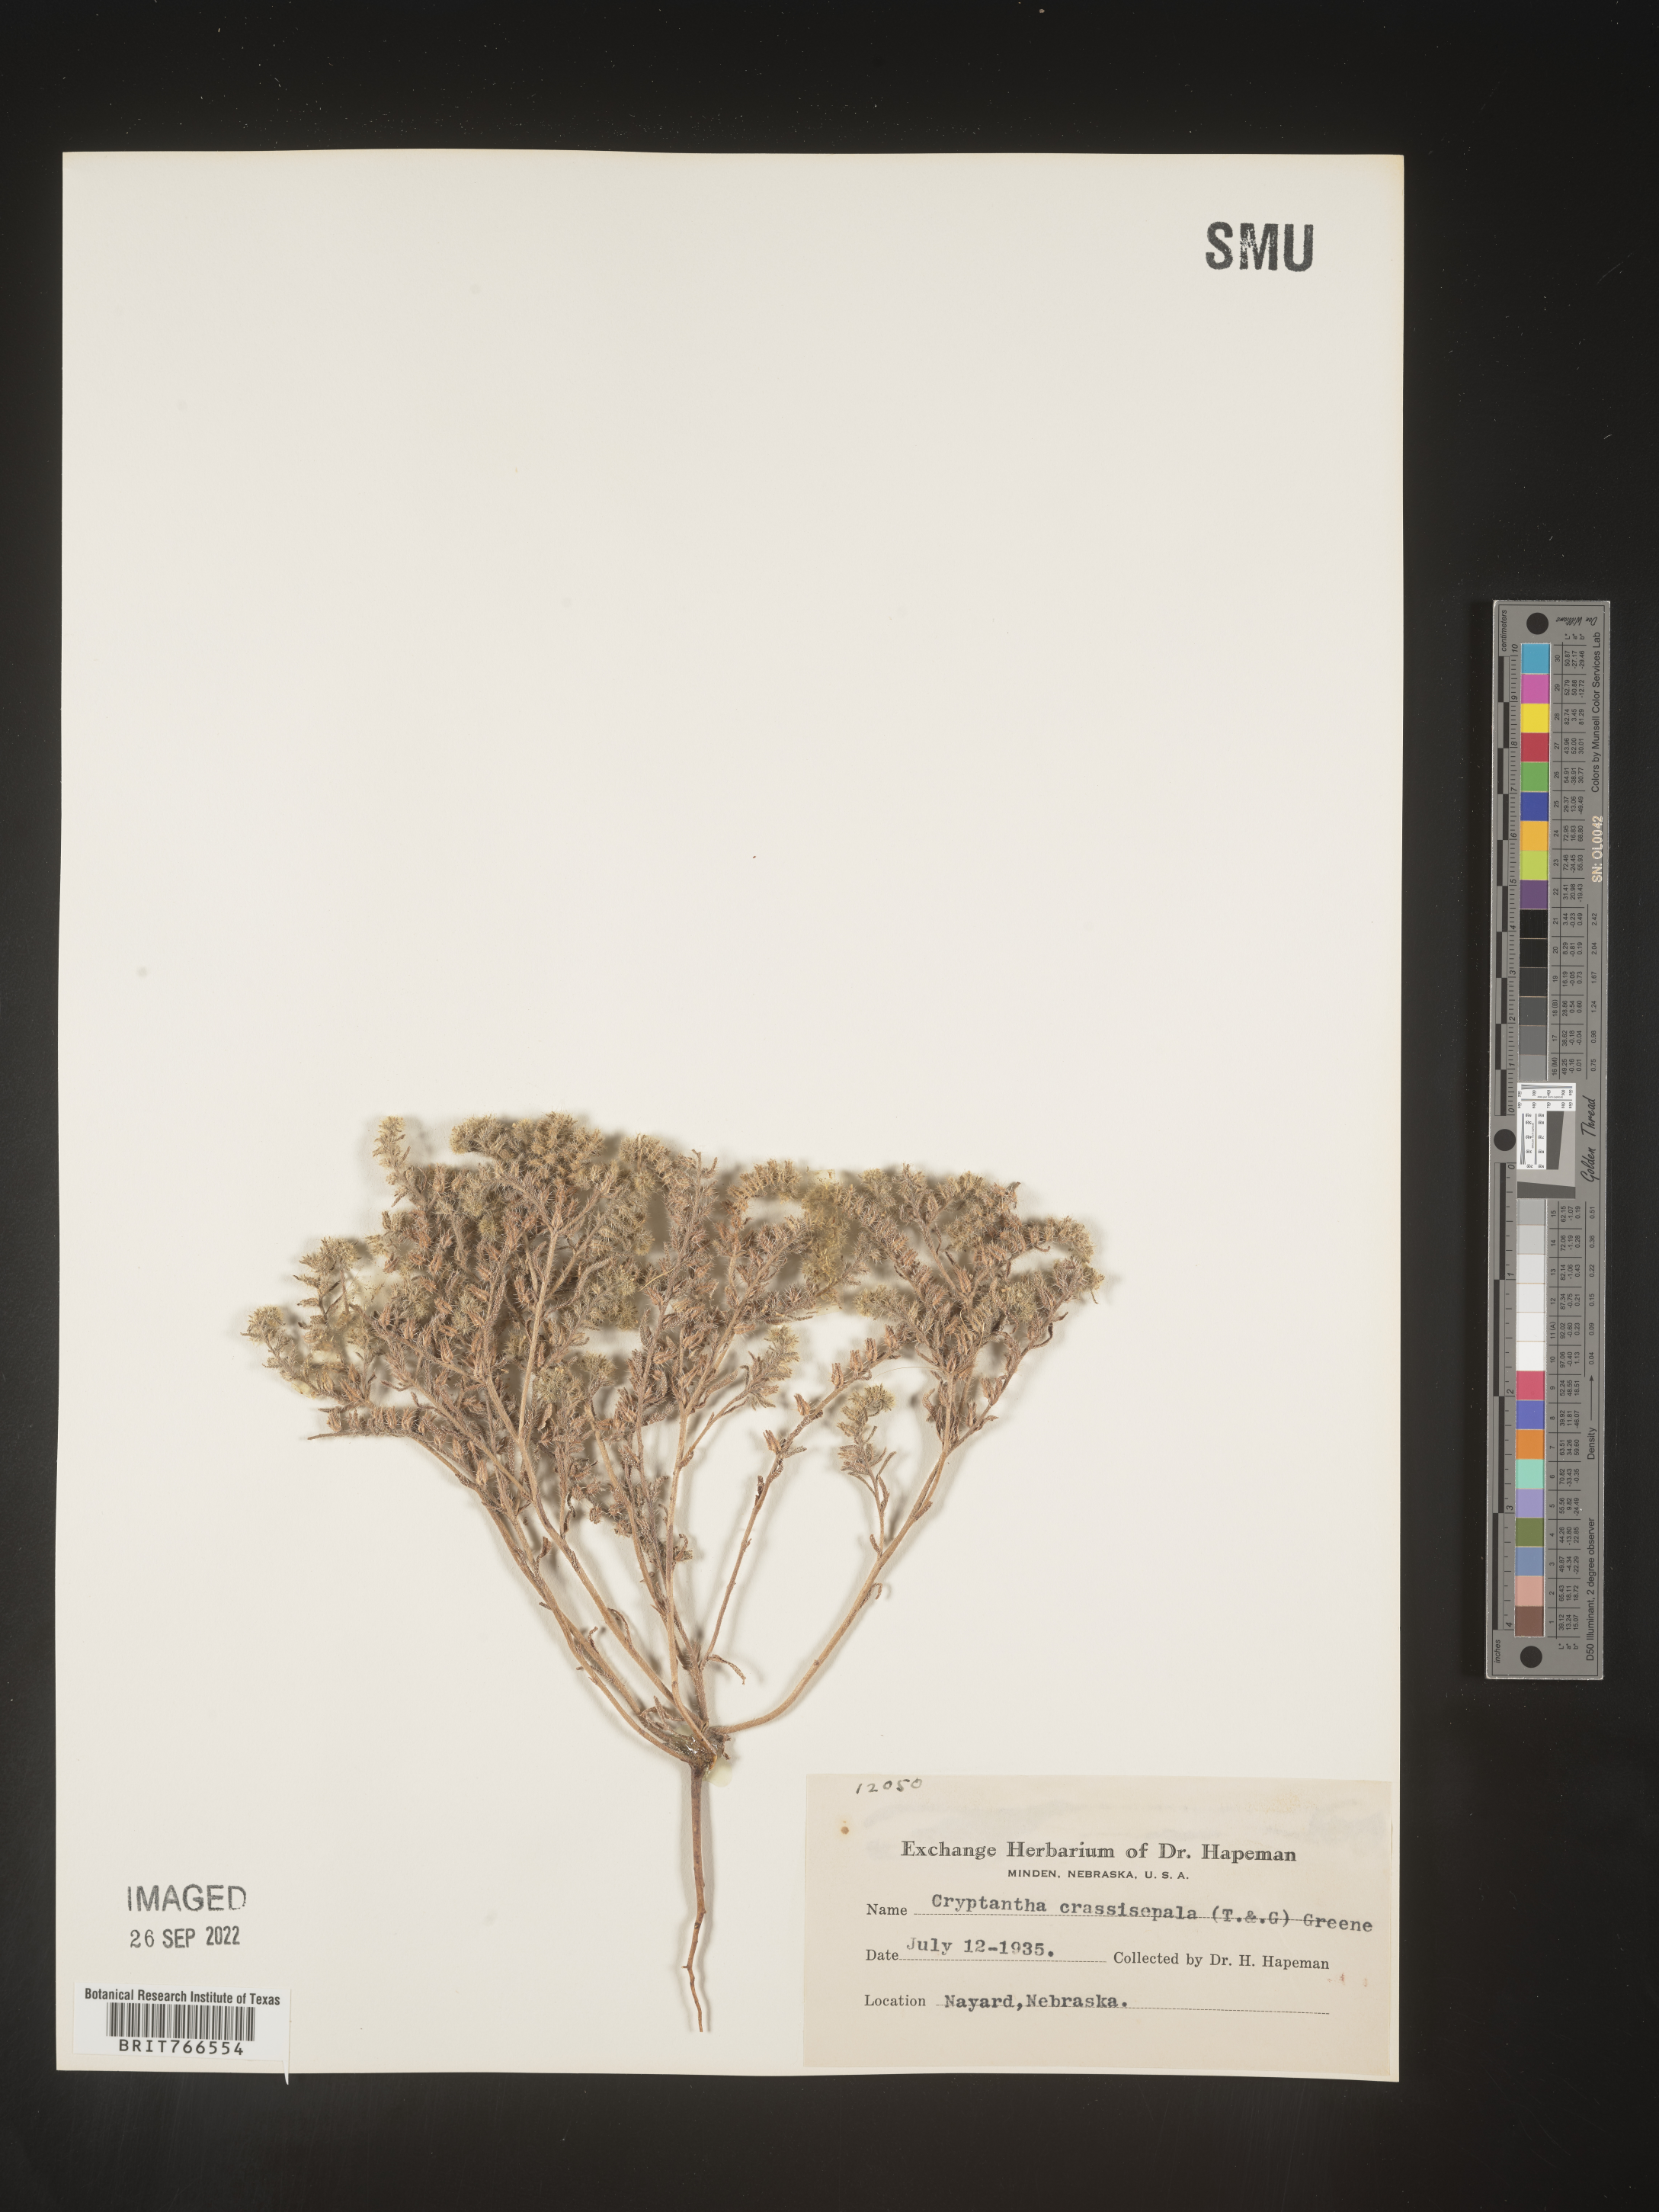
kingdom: Plantae
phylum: Tracheophyta
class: Magnoliopsida
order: Boraginales
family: Boraginaceae
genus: Cryptantha
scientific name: Cryptantha
